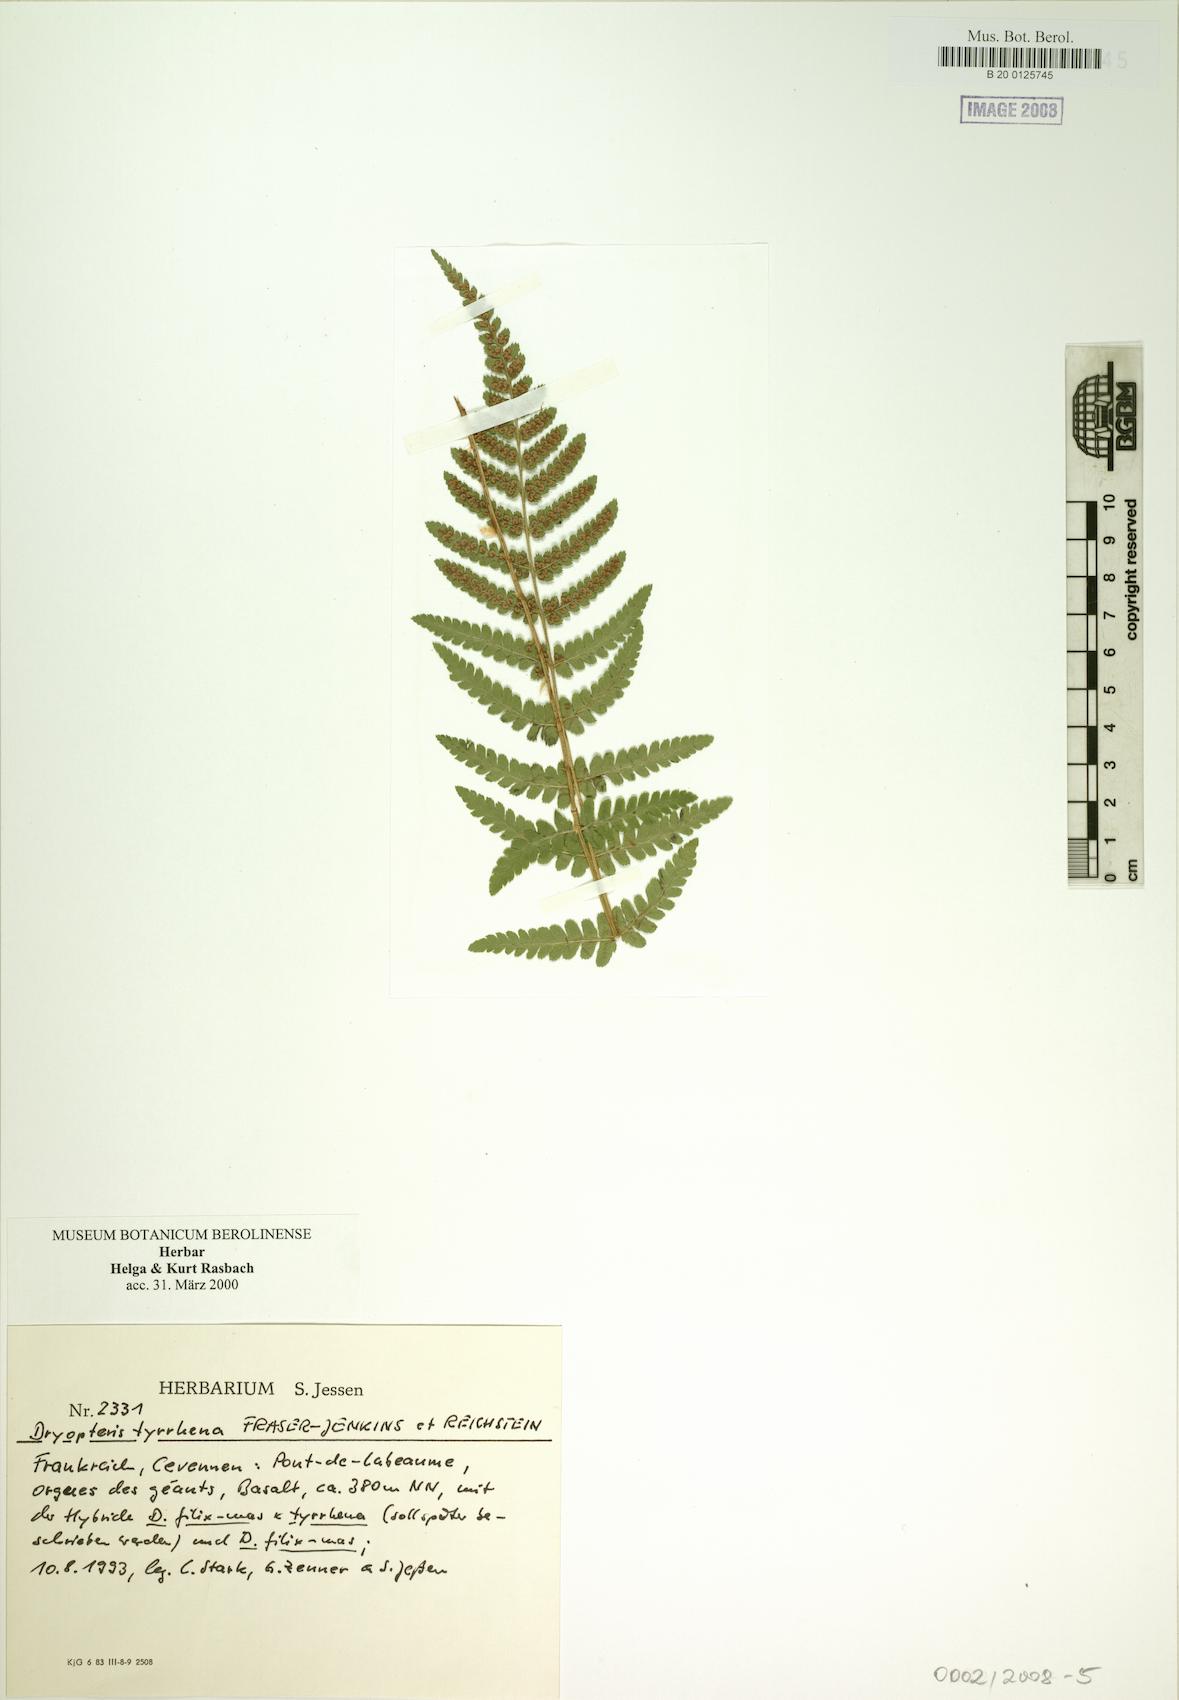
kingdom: Plantae
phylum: Tracheophyta
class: Polypodiopsida
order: Polypodiales
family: Dryopteridaceae
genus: Dryopteris
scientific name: Dryopteris tyrrhena
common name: Mediterranean buckler-fern
